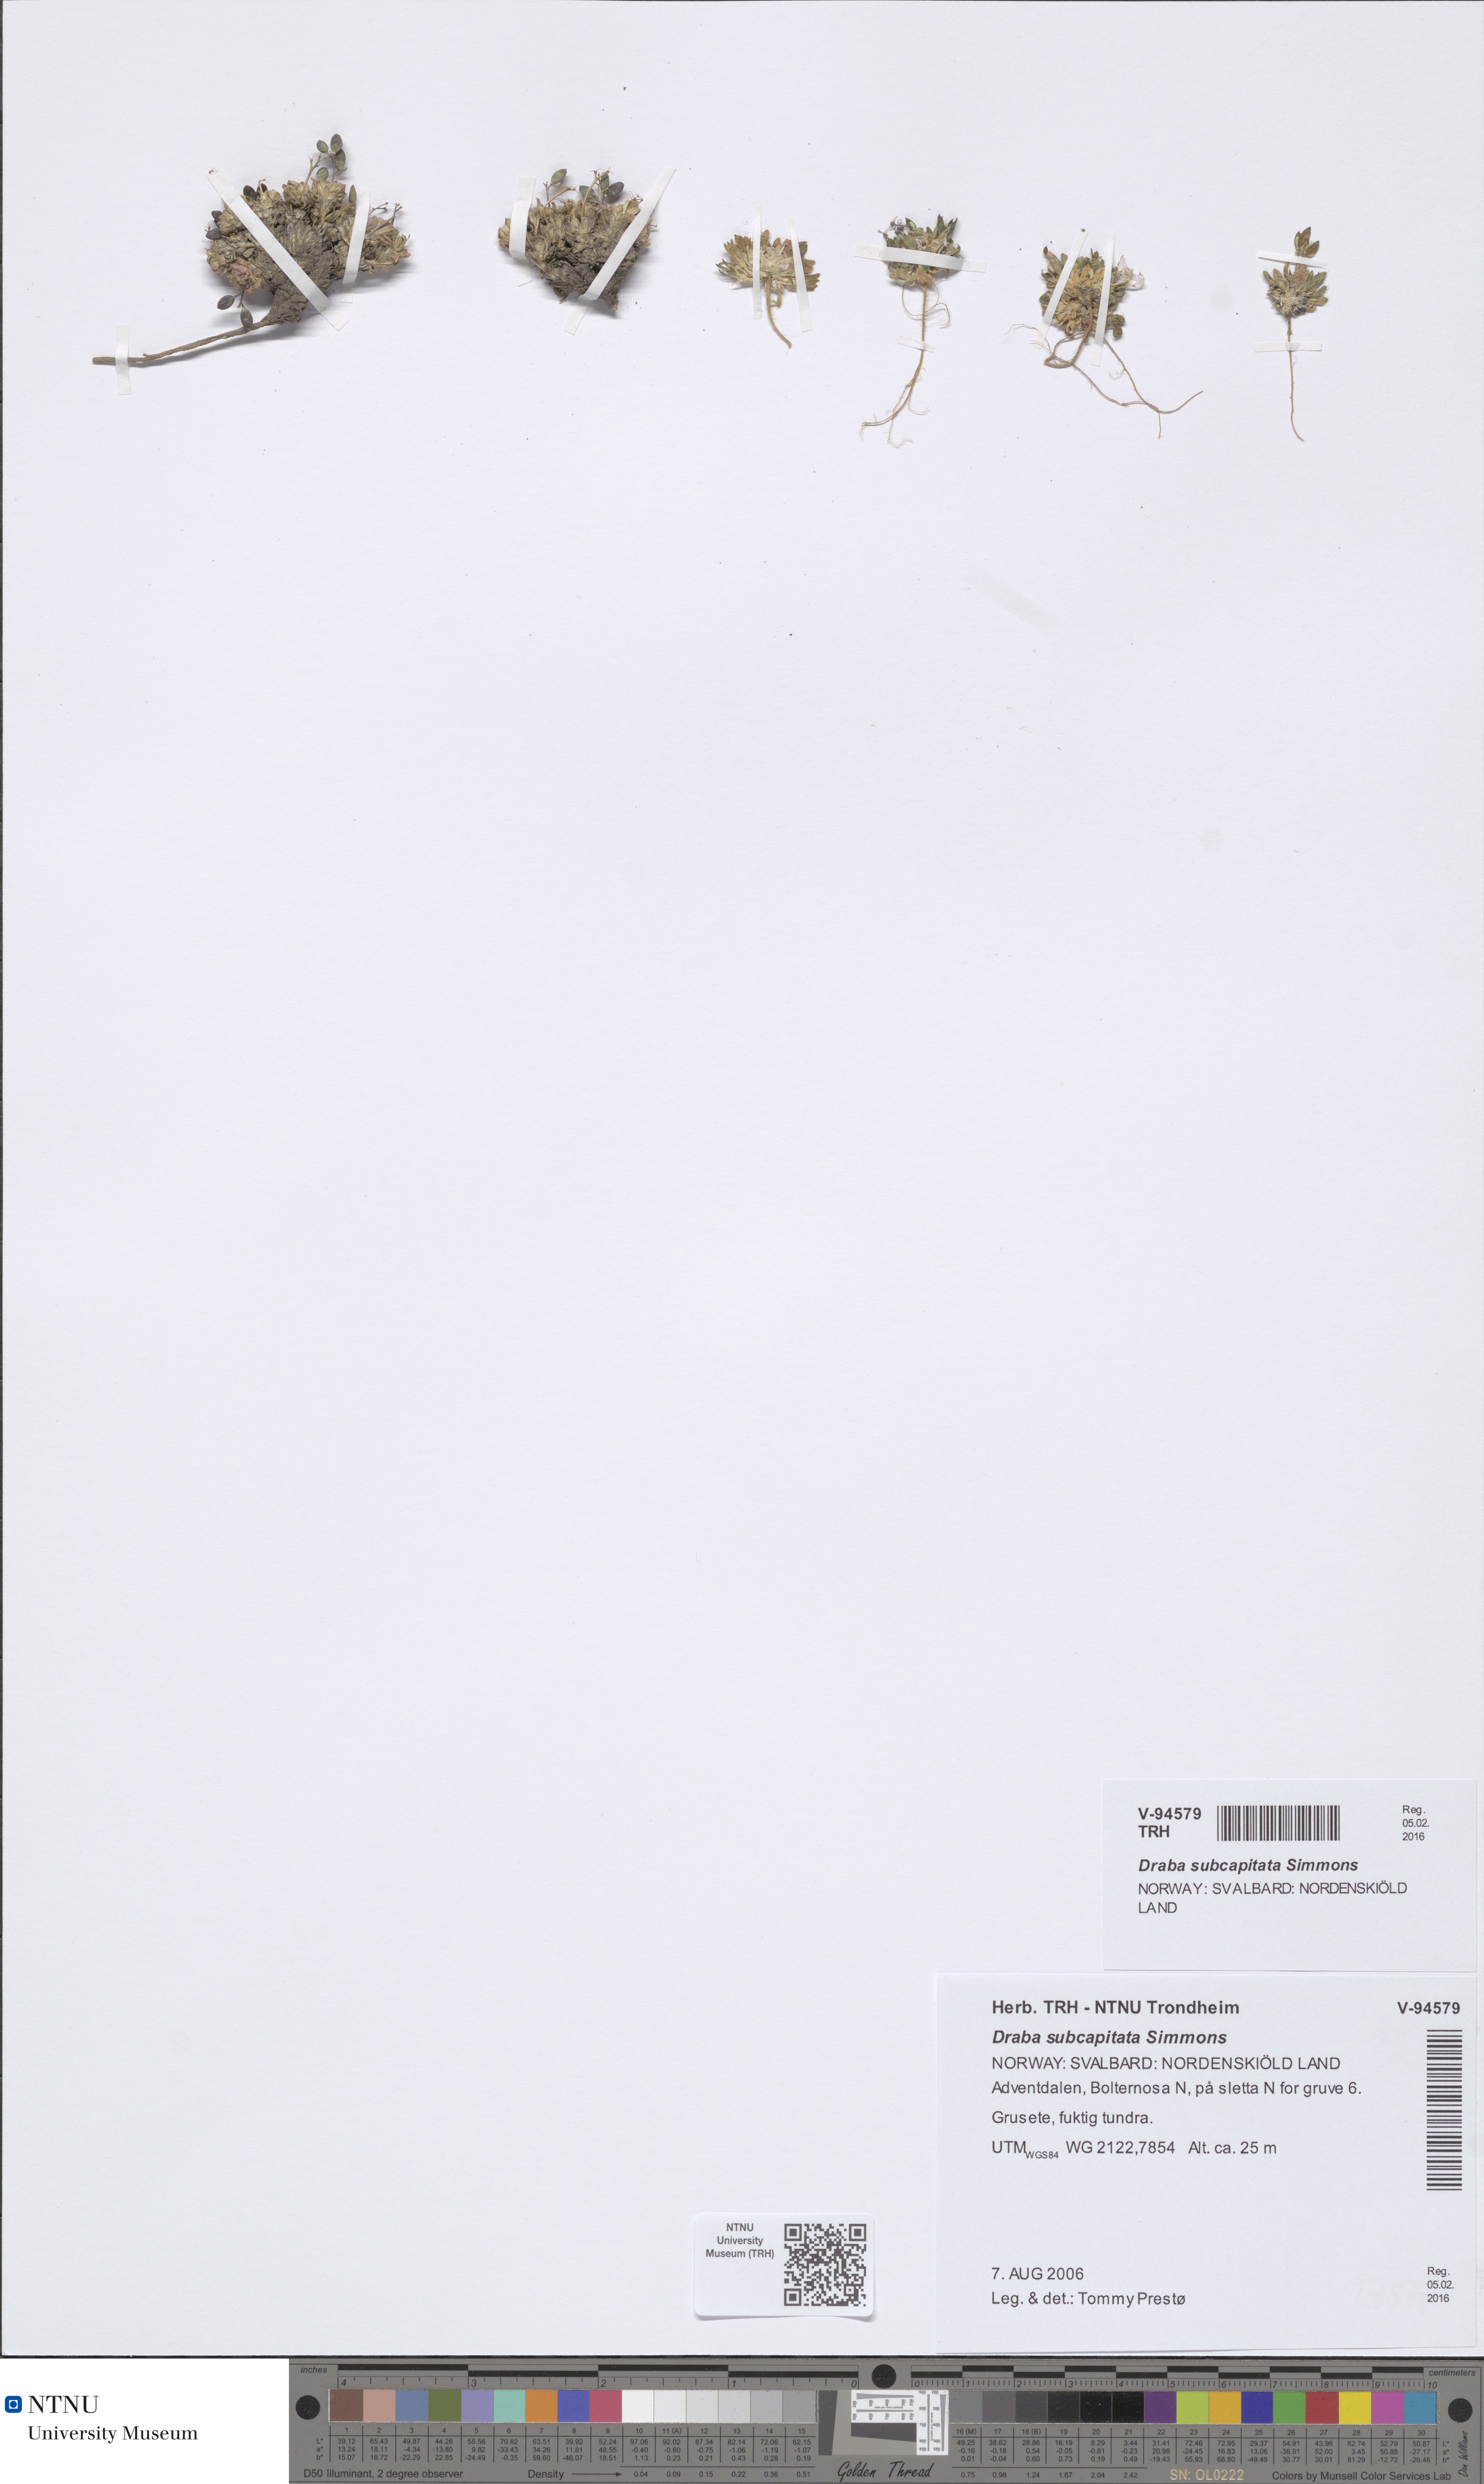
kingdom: Plantae
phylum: Tracheophyta
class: Magnoliopsida
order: Brassicales
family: Brassicaceae
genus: Draba
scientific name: Draba subcapitata
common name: Ellesmere island draba
